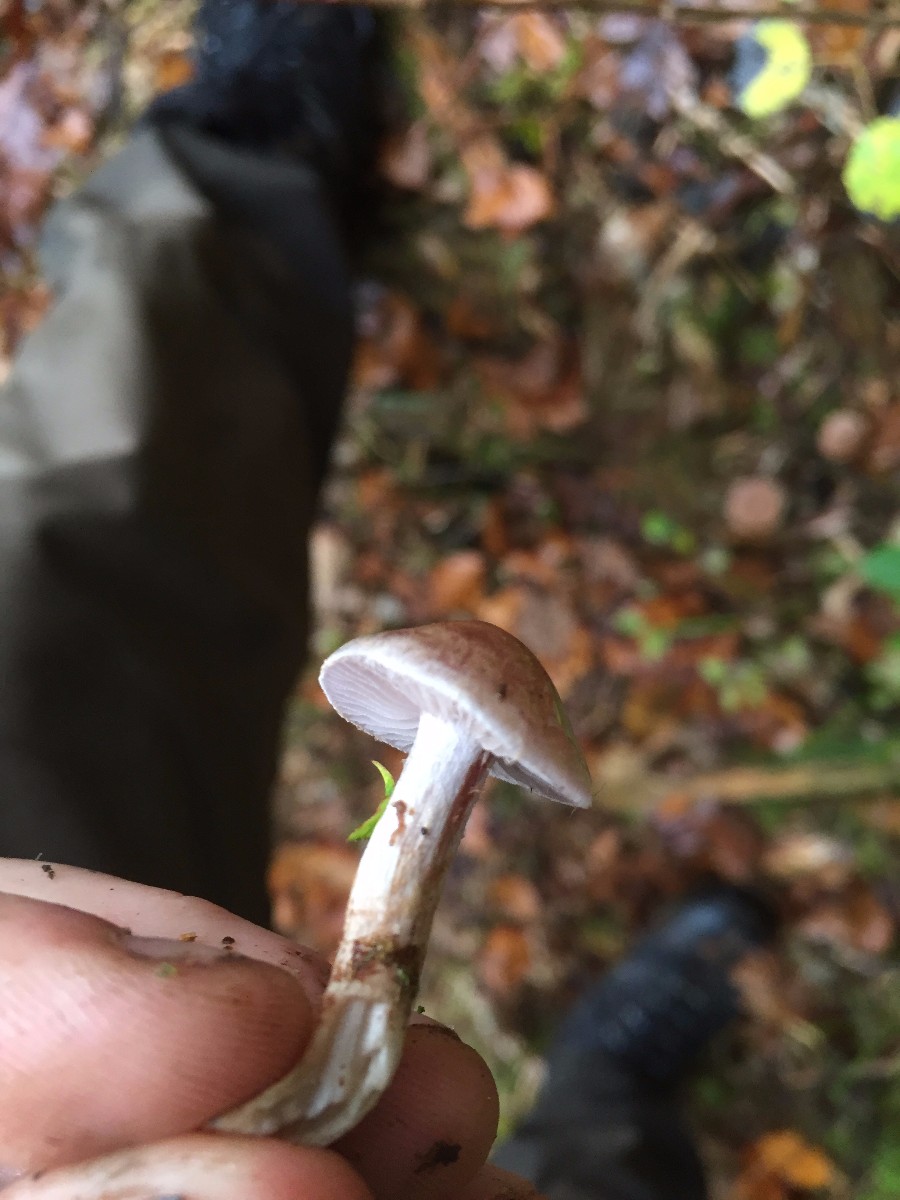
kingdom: Fungi
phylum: Basidiomycota
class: Agaricomycetes
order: Agaricales
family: Cortinariaceae
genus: Cortinarius
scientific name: Cortinarius
